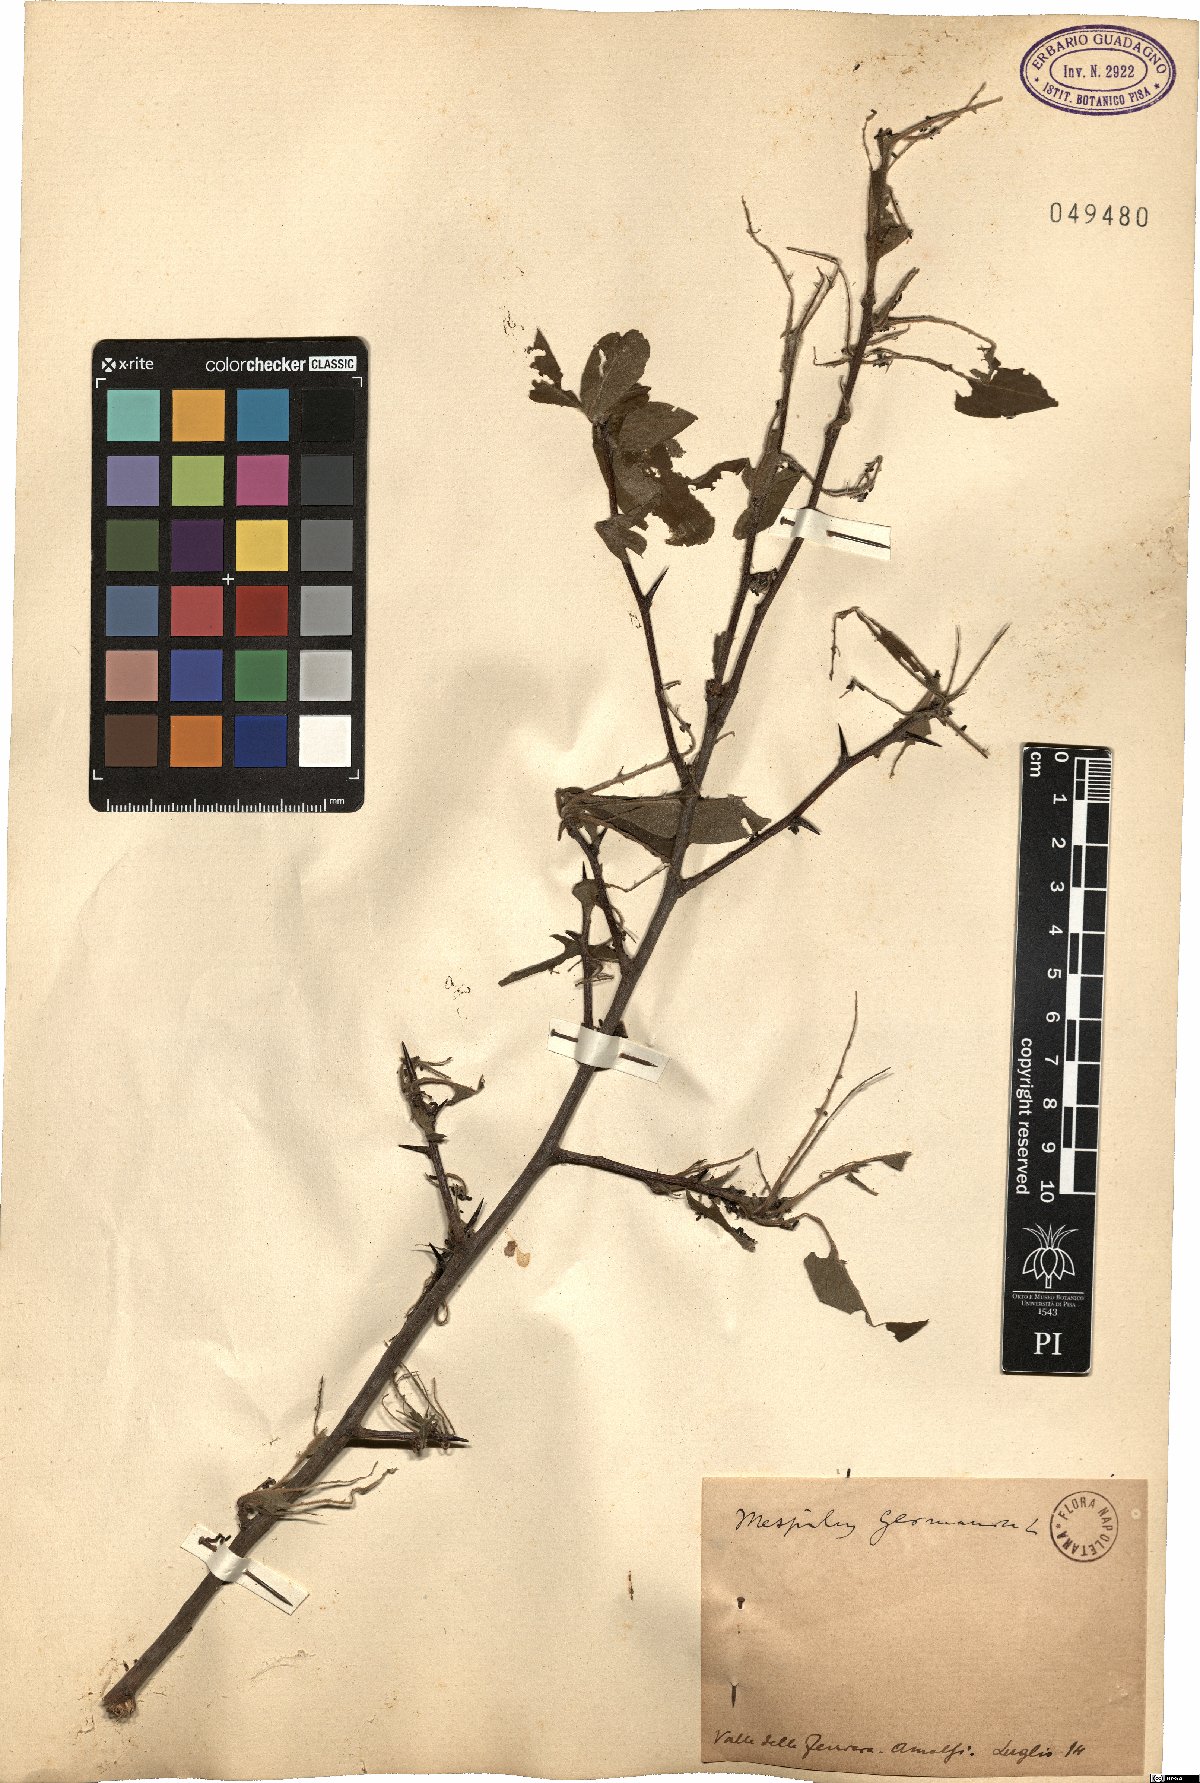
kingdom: Plantae
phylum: Tracheophyta
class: Magnoliopsida
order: Rosales
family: Rosaceae
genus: Mespilus
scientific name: Mespilus germanica
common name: Medlar
